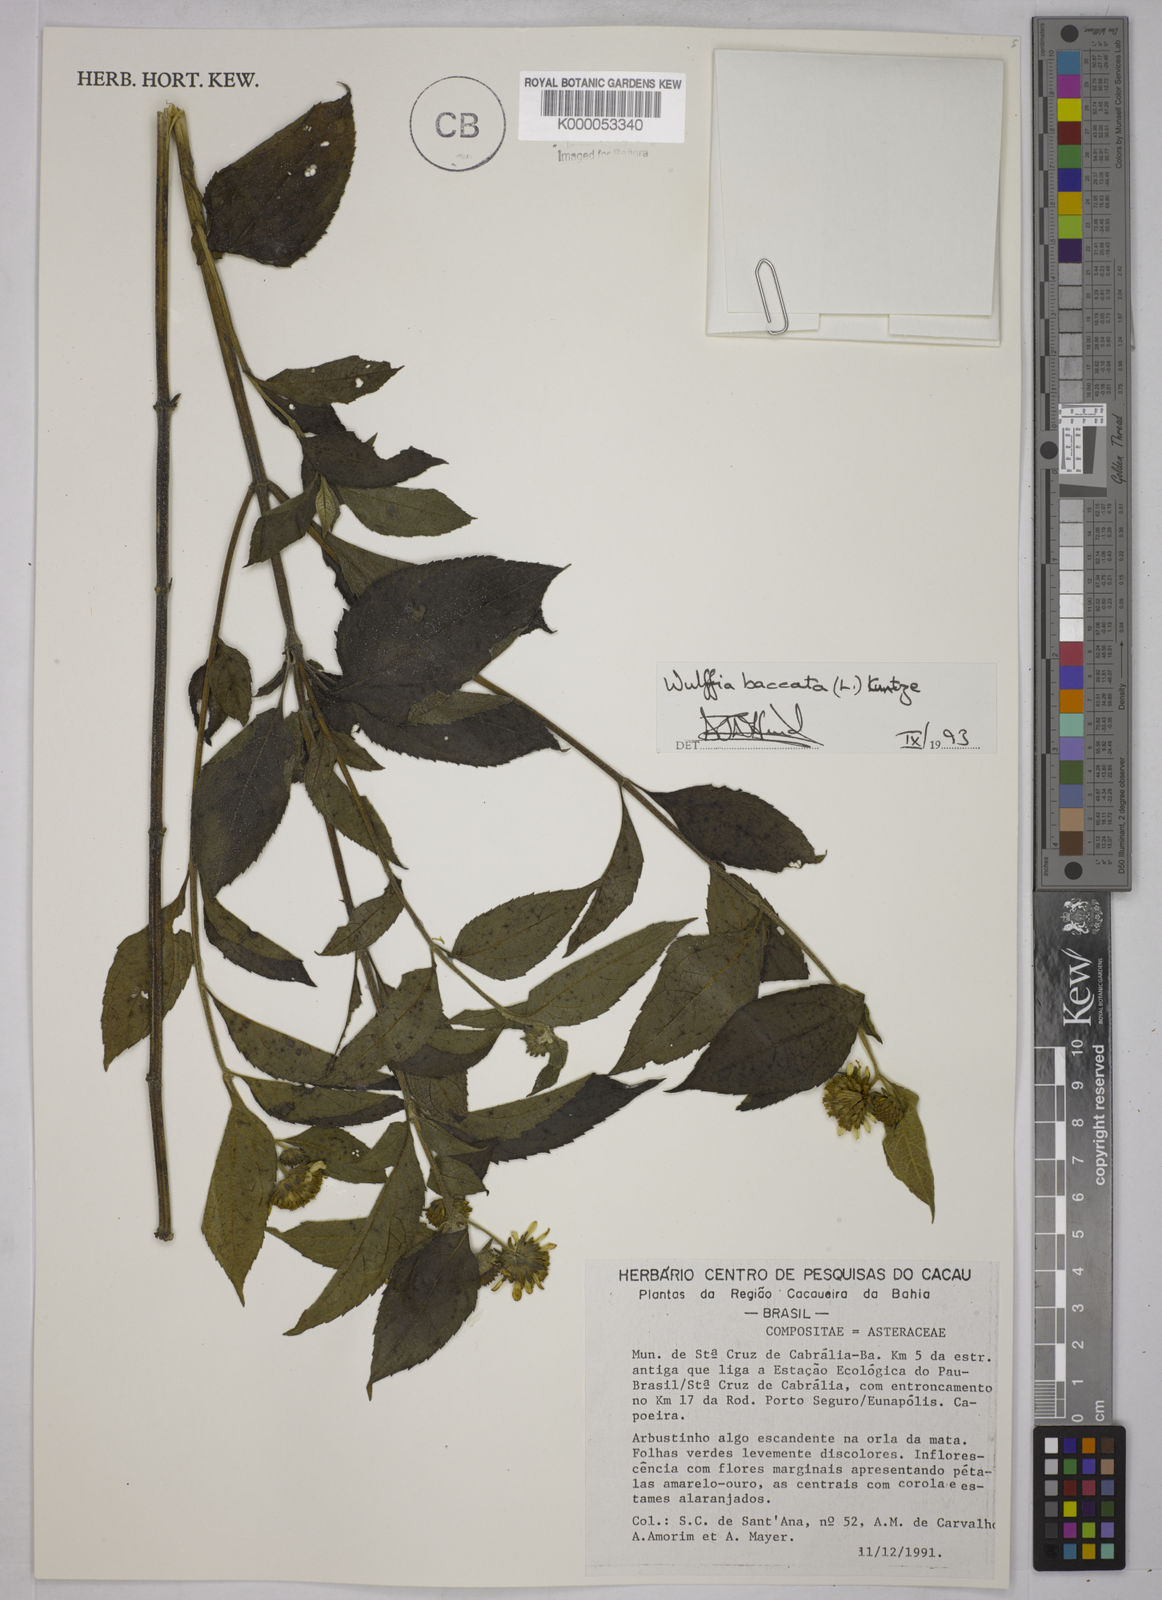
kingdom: Plantae
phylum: Tracheophyta
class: Magnoliopsida
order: Asterales
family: Asteraceae
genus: Tilesia
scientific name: Tilesia baccata
